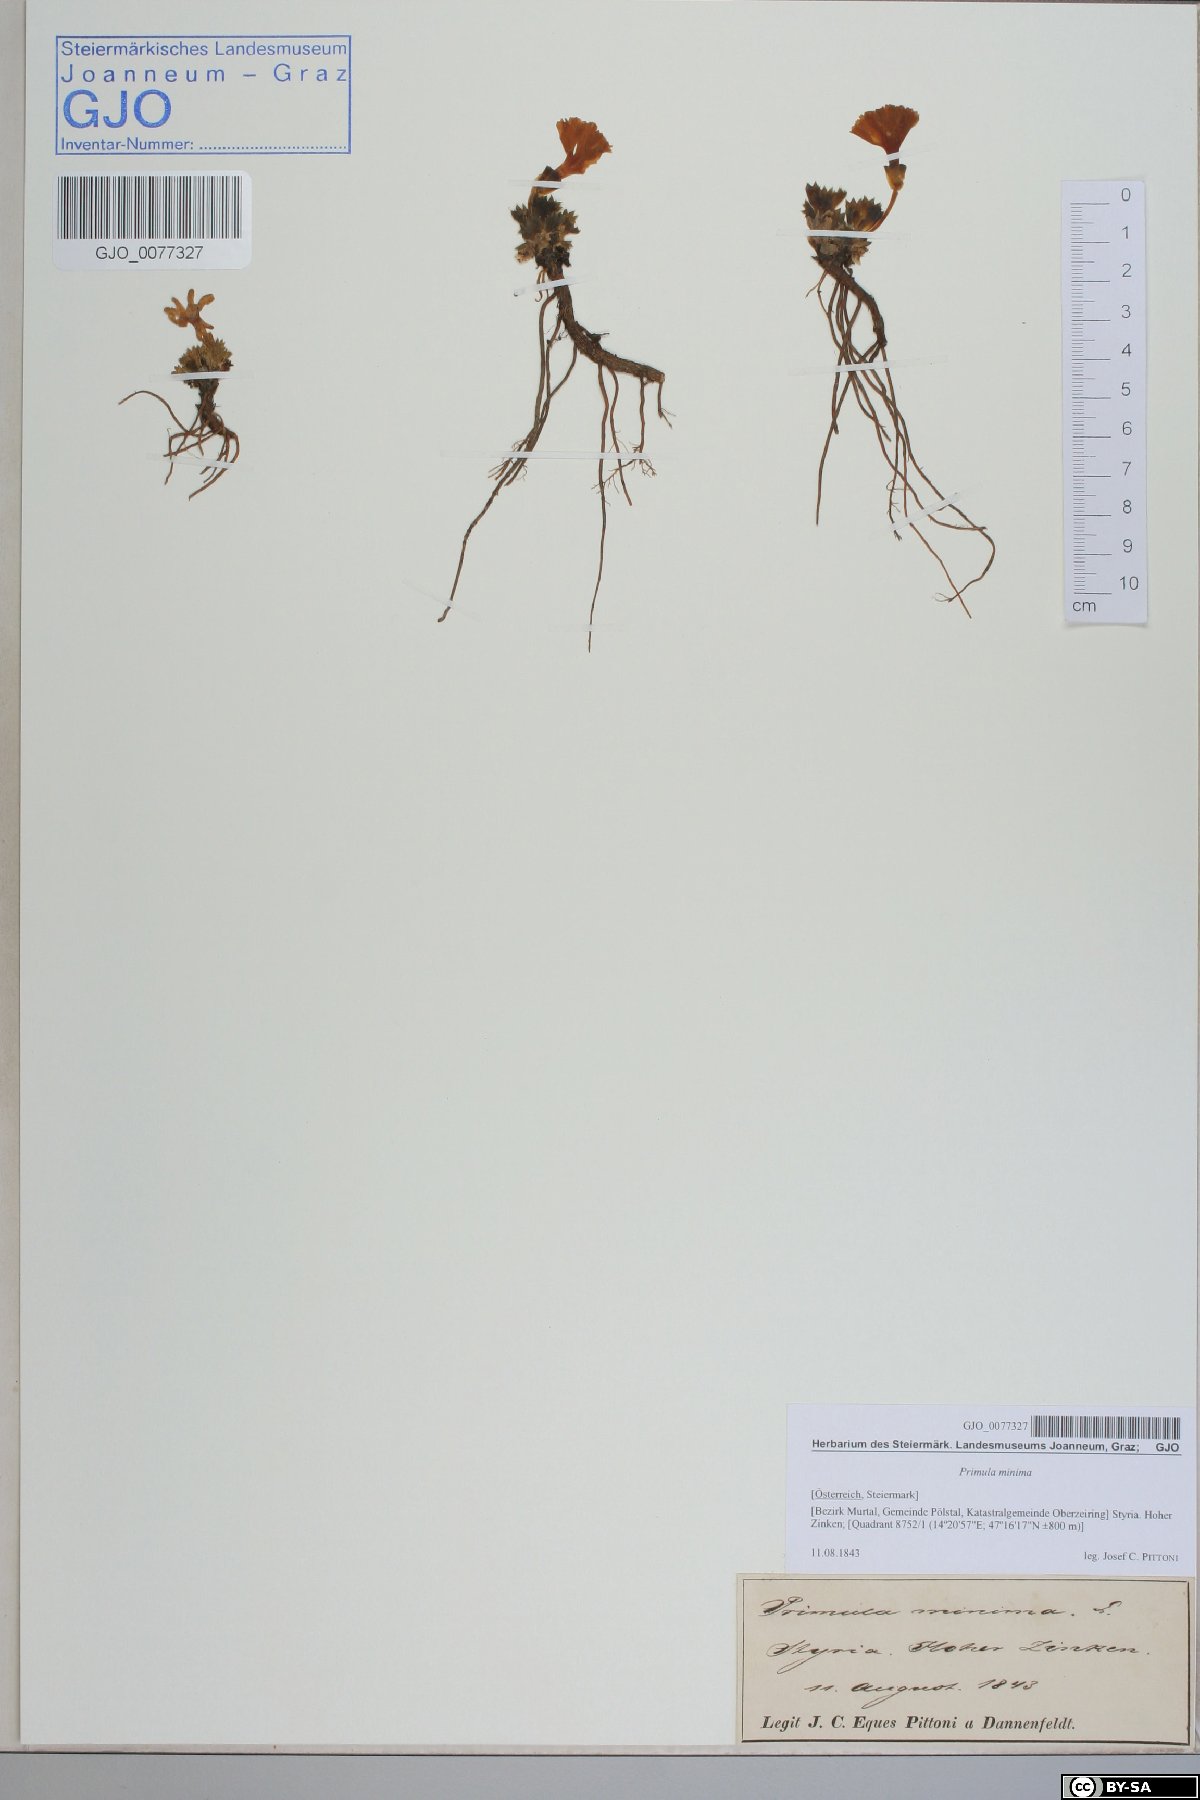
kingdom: Plantae
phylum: Tracheophyta
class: Magnoliopsida
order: Ericales
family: Primulaceae
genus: Primula
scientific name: Primula minima
